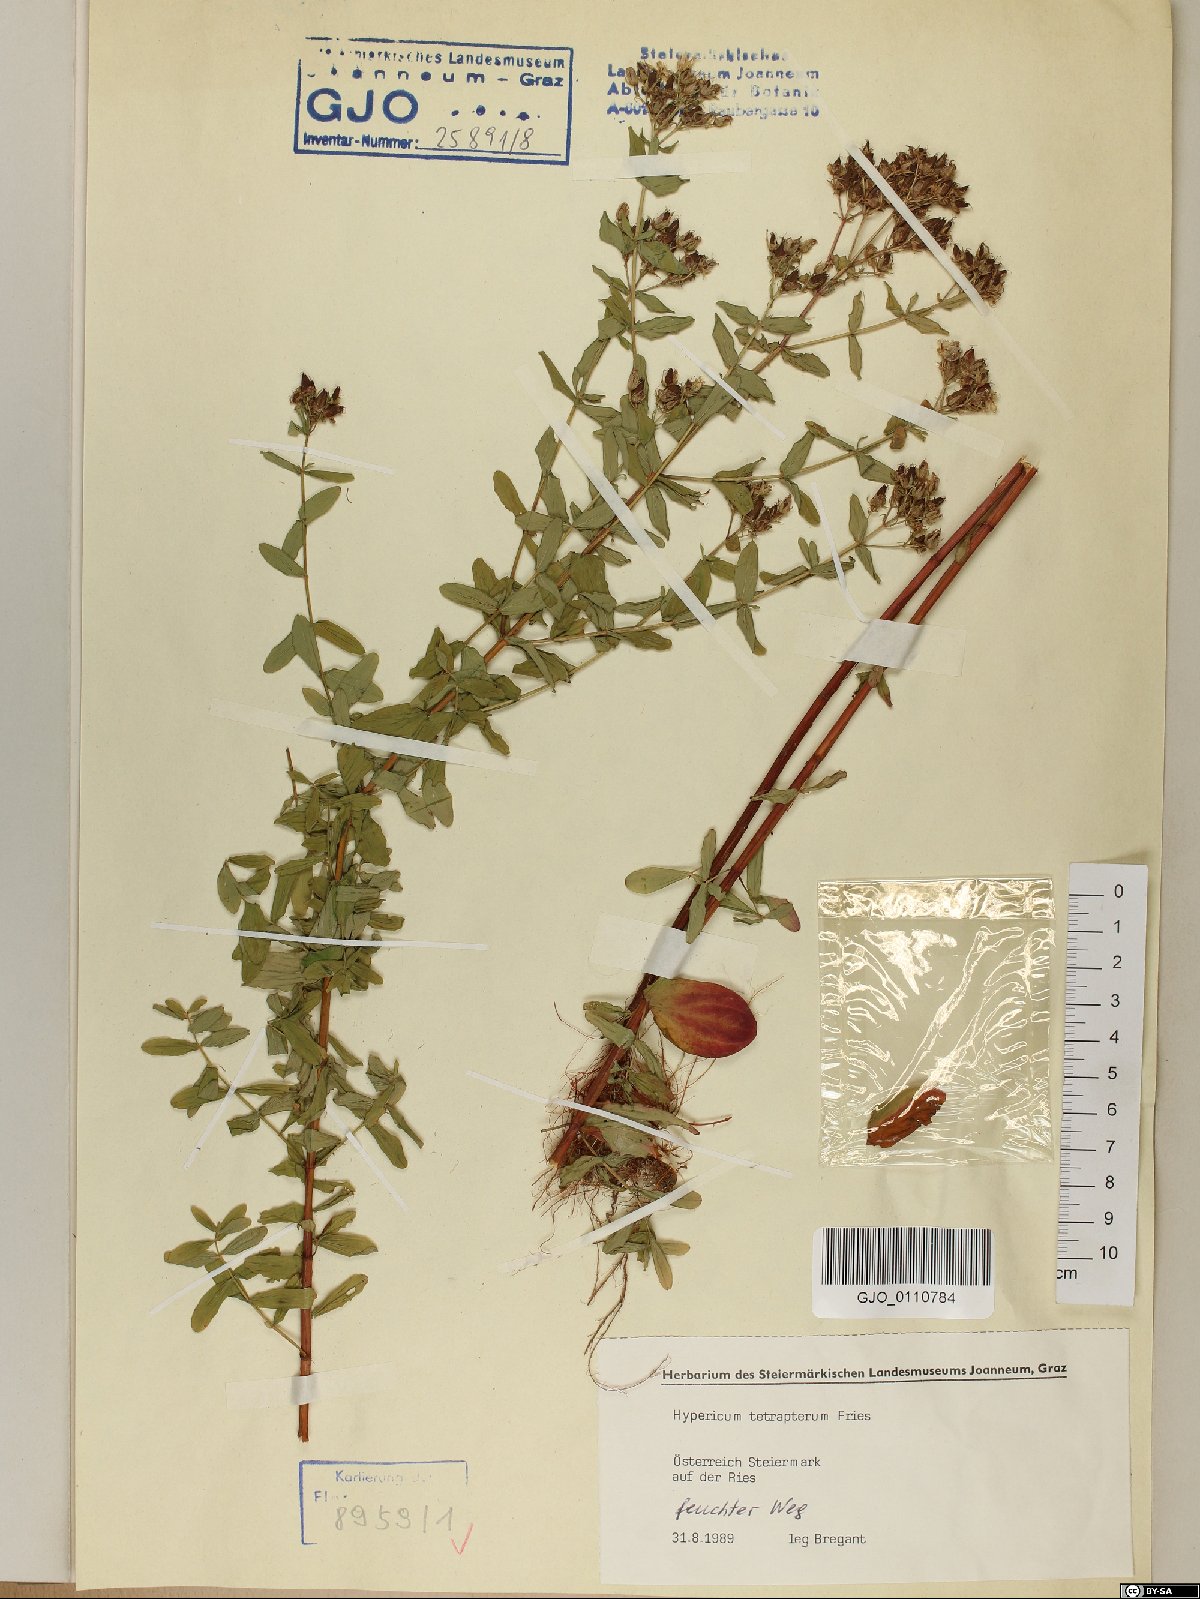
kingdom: Plantae
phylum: Tracheophyta
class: Magnoliopsida
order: Malpighiales
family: Hypericaceae
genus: Hypericum
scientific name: Hypericum tetrapterum
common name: Square-stalked st. john's-wort
